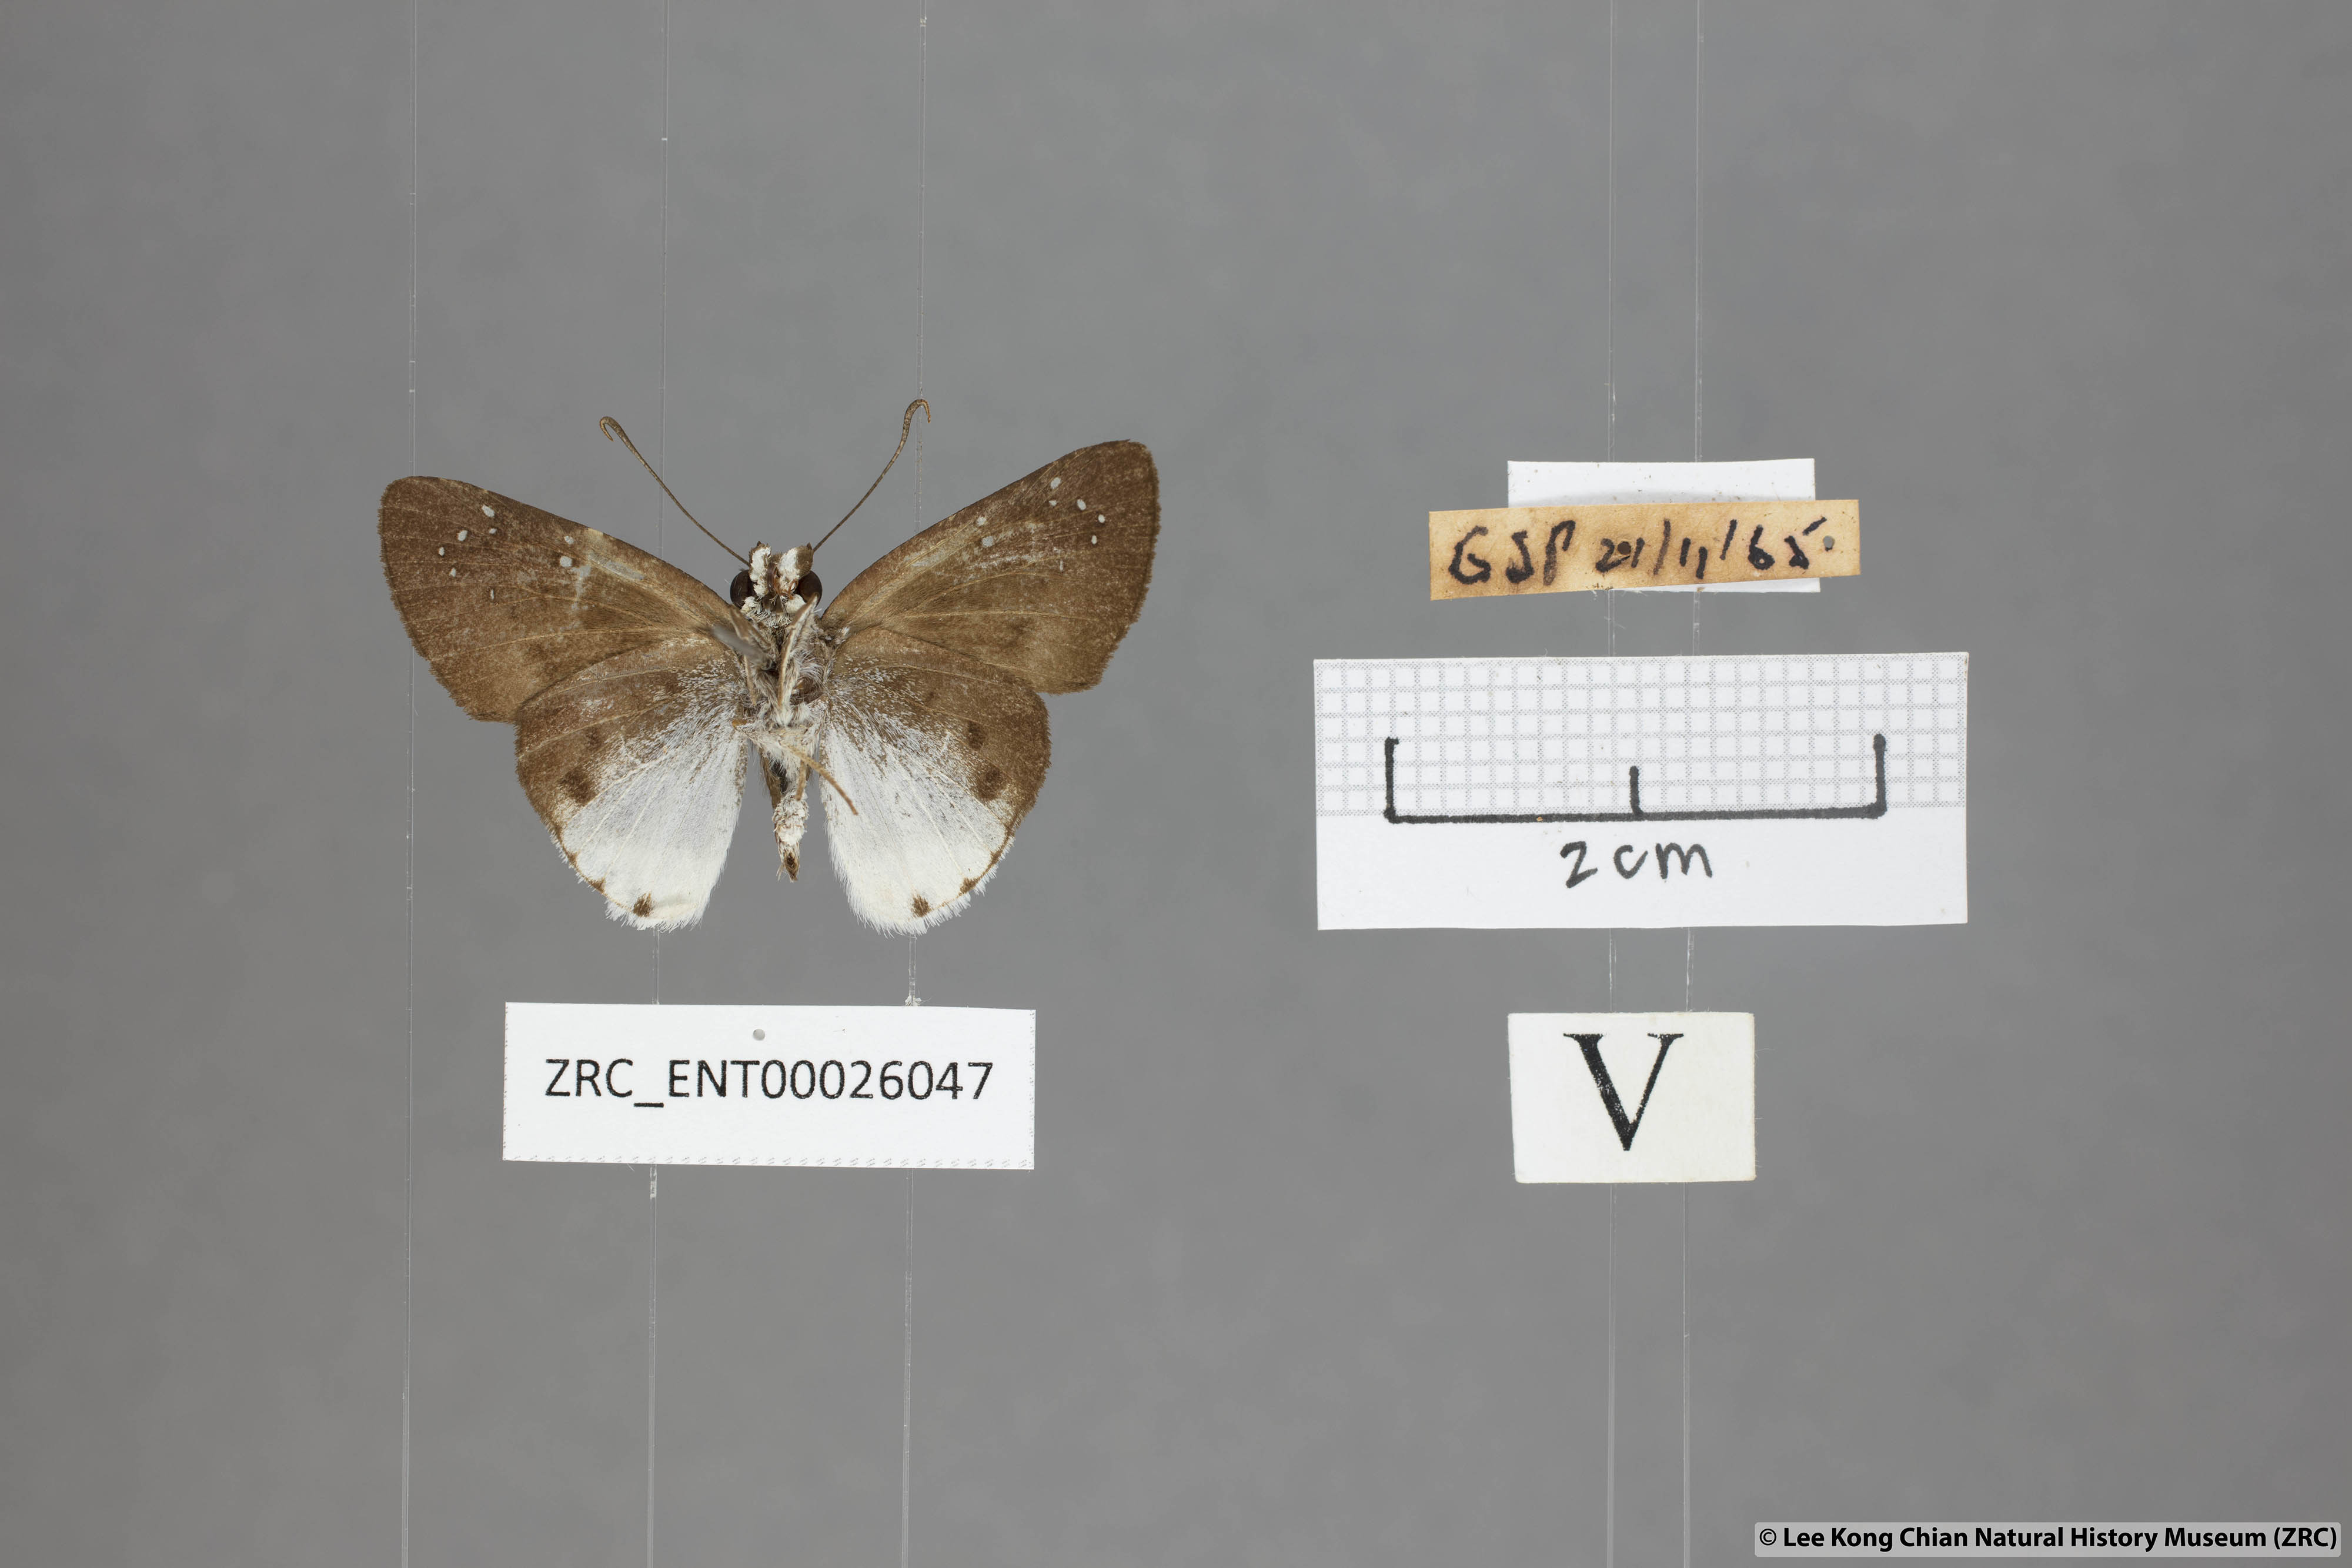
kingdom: Animalia
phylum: Arthropoda
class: Insecta
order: Lepidoptera
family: Hesperiidae
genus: Tagiades
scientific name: Tagiades toba
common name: Different-spotted snow flat
